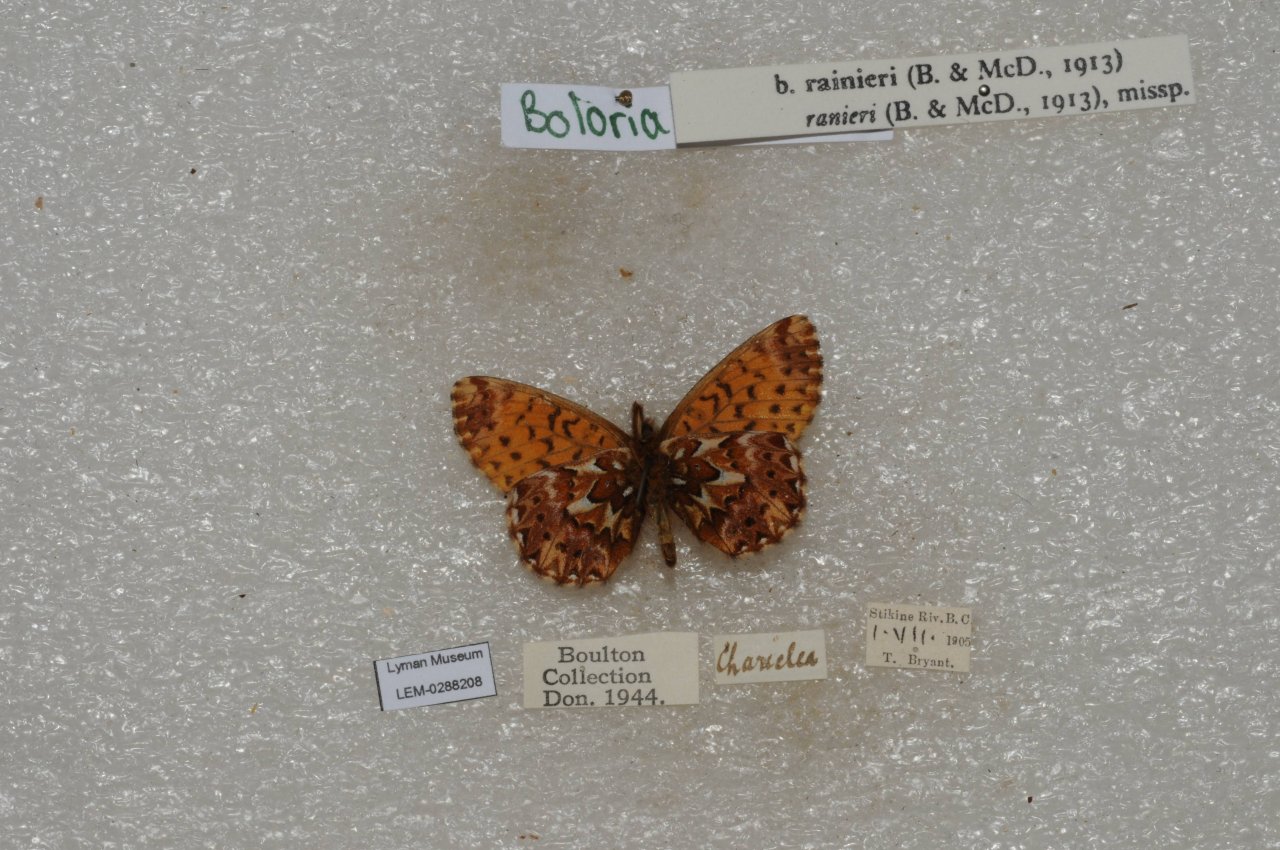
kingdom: Animalia
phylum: Arthropoda
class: Insecta
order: Lepidoptera
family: Nymphalidae
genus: Boloria
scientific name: Boloria chariclea
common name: Arctic Fritillary
